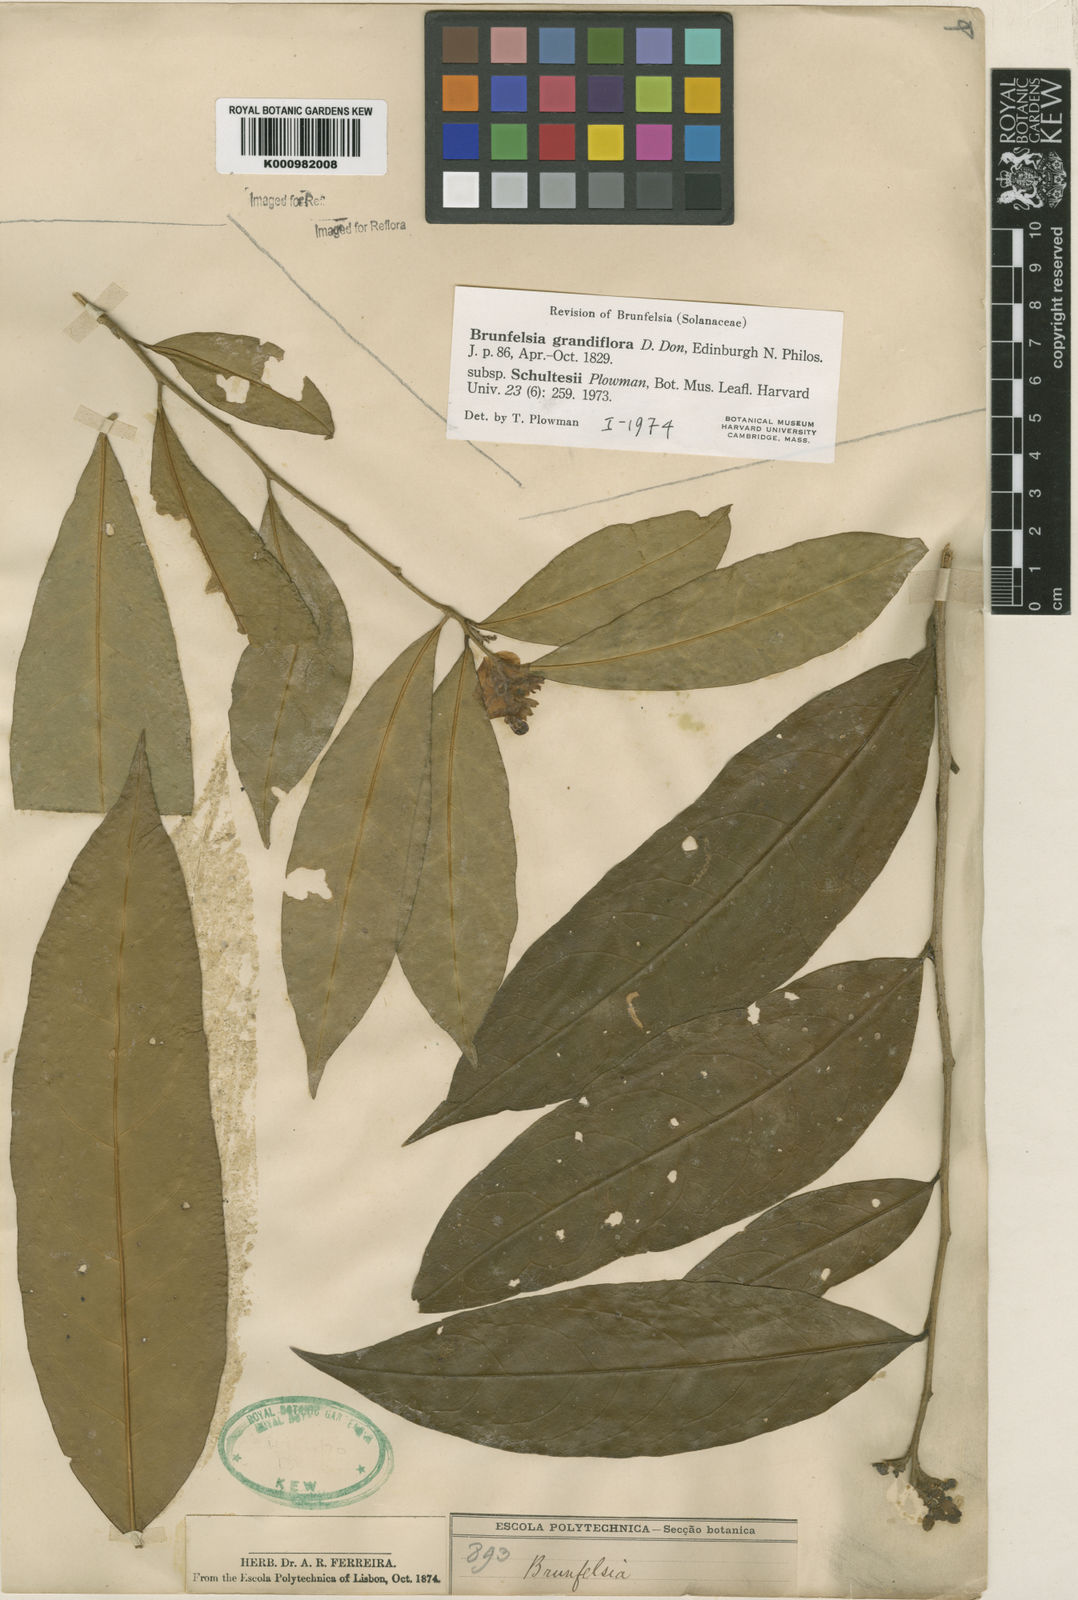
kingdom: Plantae
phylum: Tracheophyta
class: Magnoliopsida
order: Solanales
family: Solanaceae
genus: Brunfelsia
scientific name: Brunfelsia grandiflora
